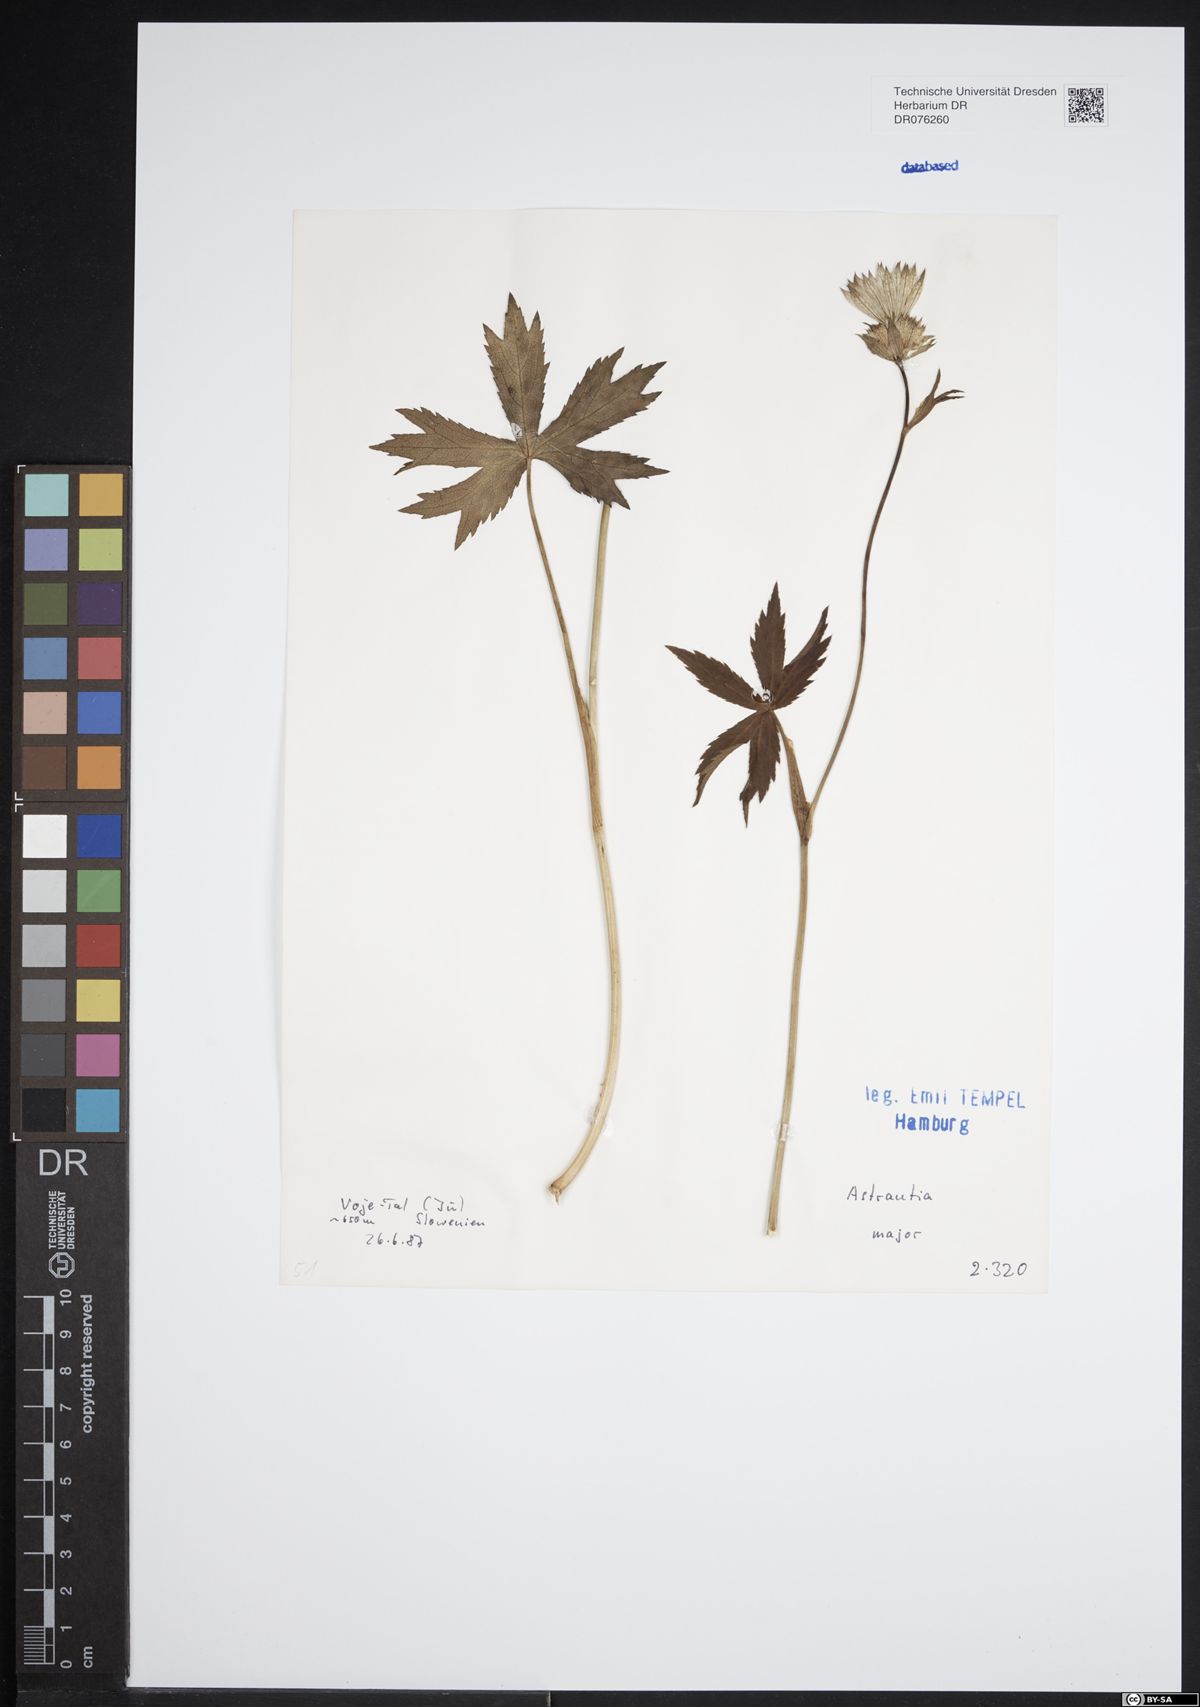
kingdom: Plantae
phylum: Tracheophyta
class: Magnoliopsida
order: Apiales
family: Apiaceae
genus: Astrantia
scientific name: Astrantia major
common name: Greater masterwort
